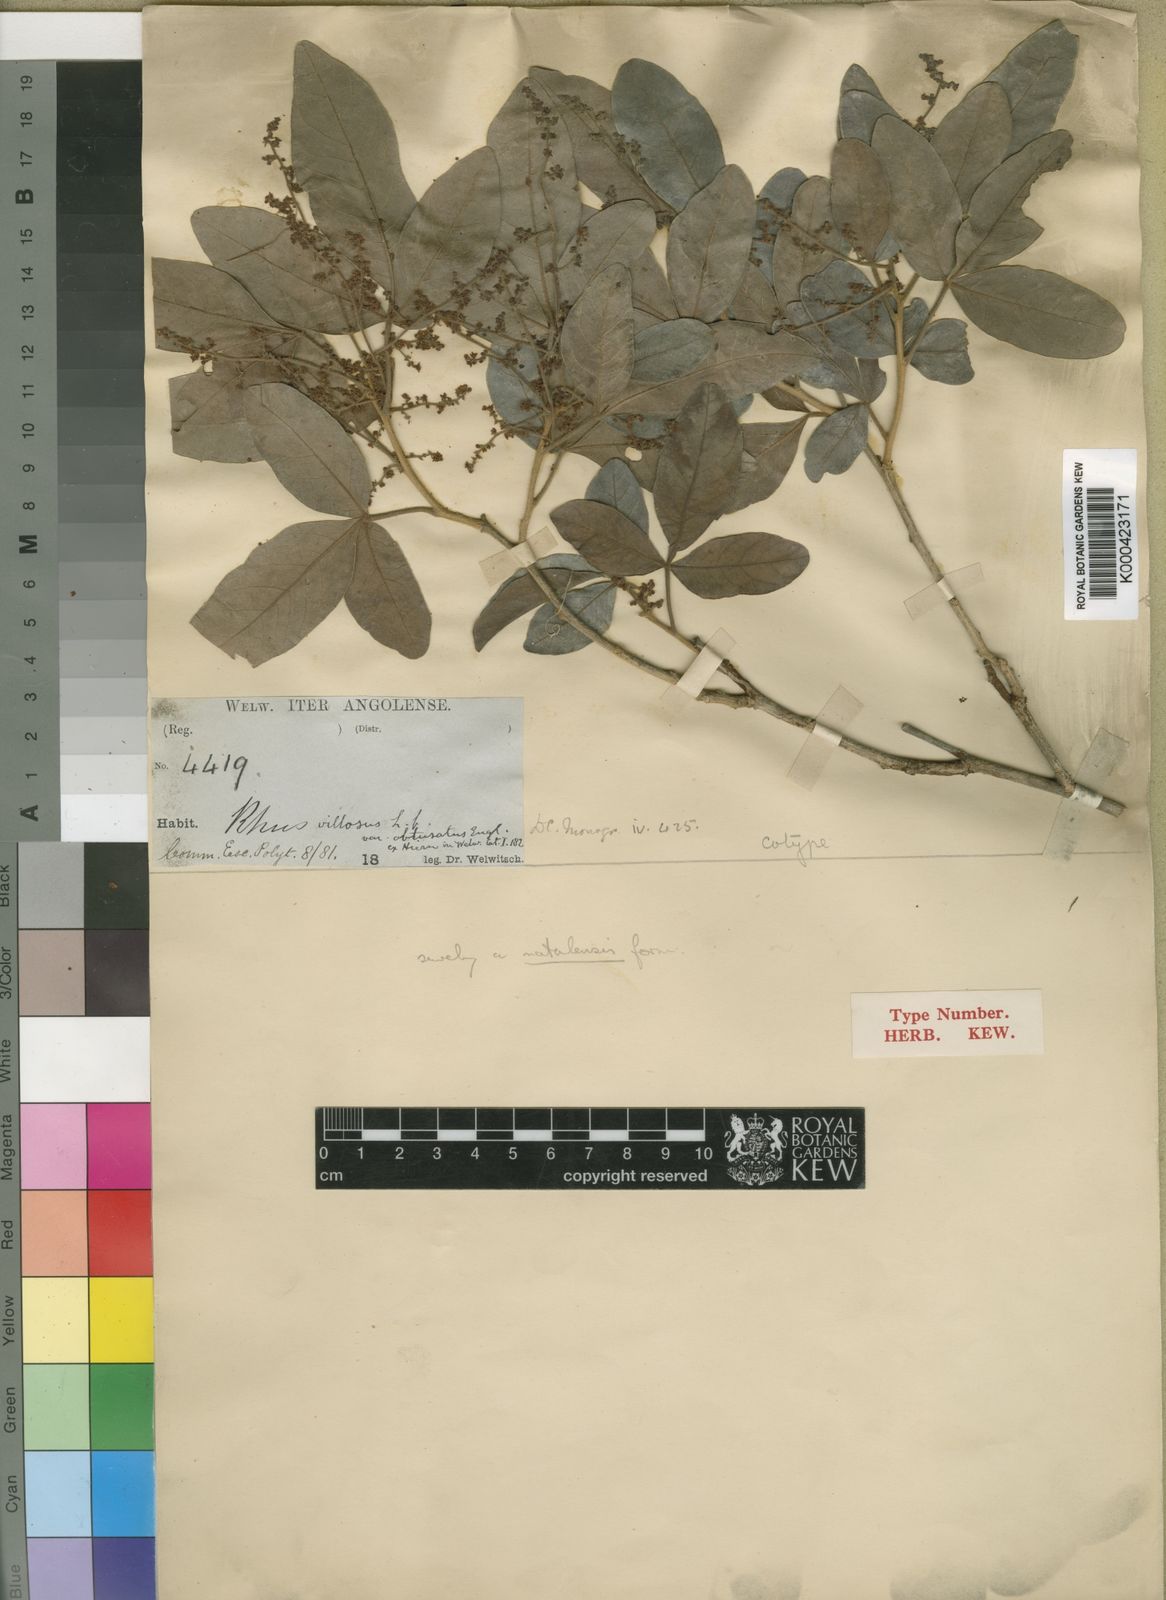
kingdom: Plantae
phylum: Tracheophyta
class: Magnoliopsida
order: Sapindales
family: Anacardiaceae
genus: Searsia
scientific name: Searsia obtusata
